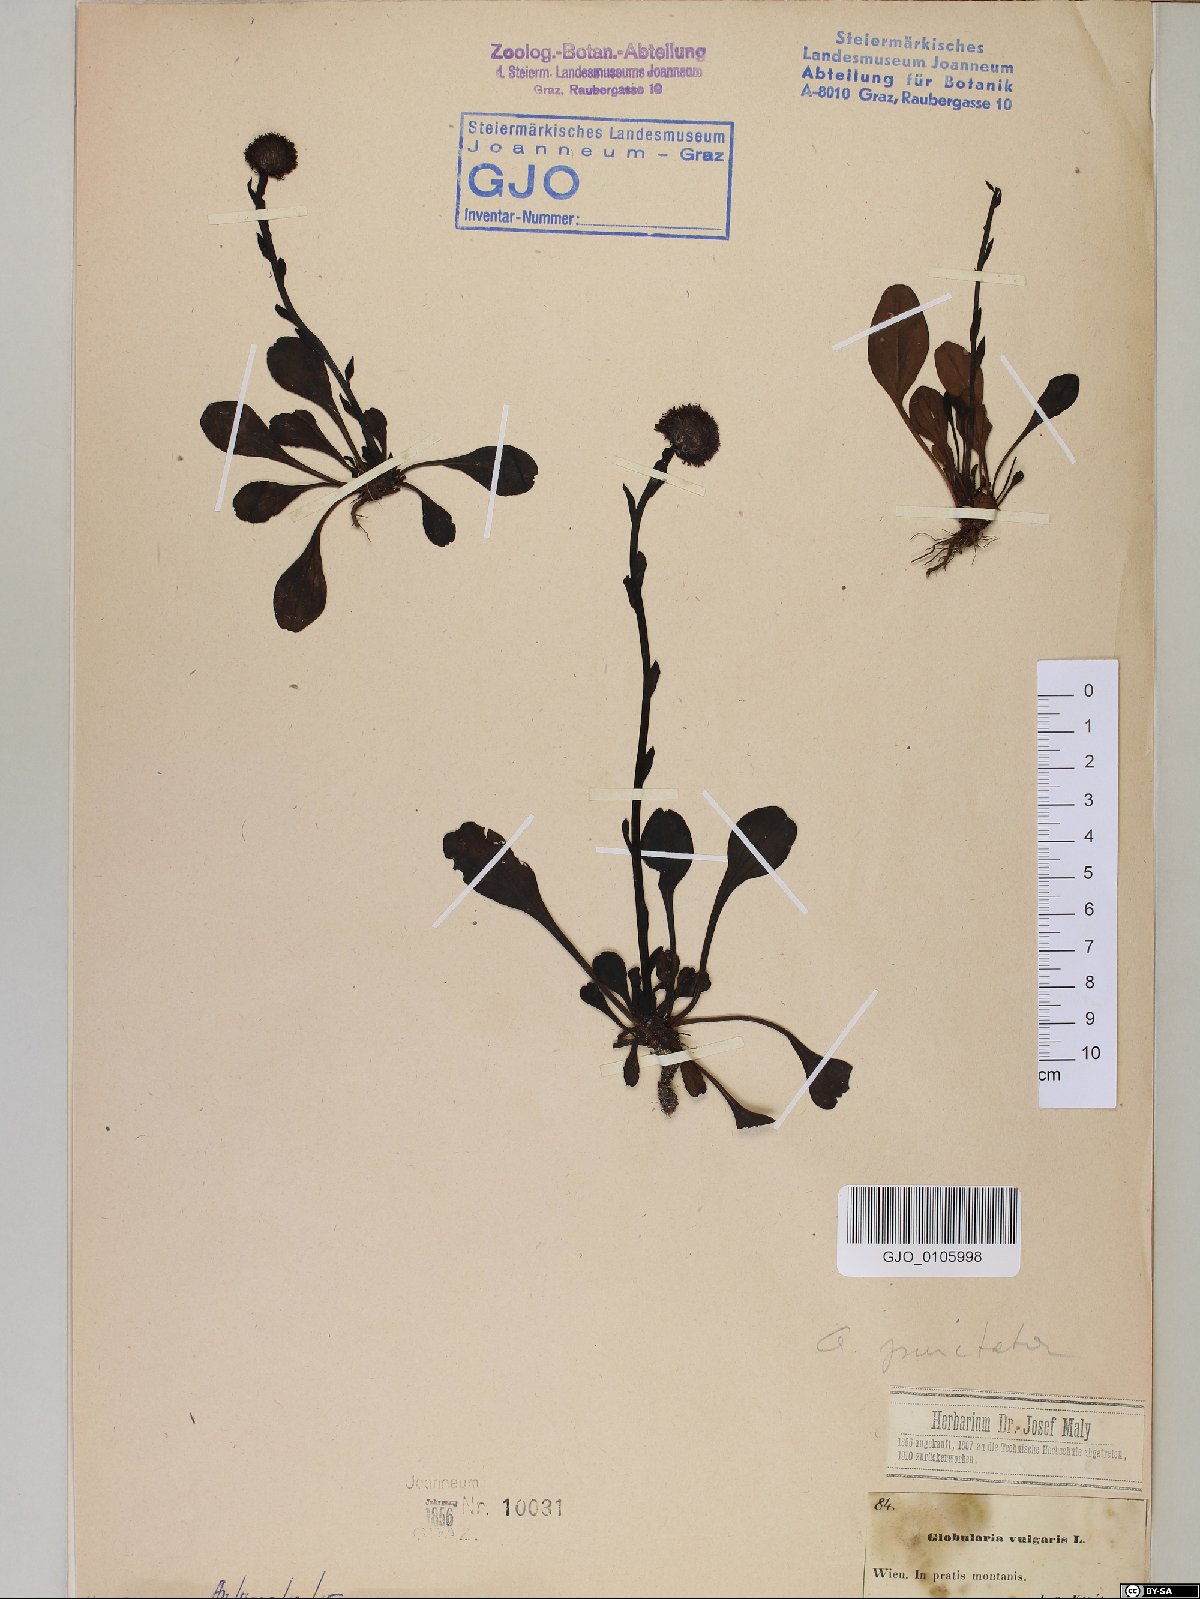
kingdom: Plantae
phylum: Tracheophyta
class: Magnoliopsida
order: Lamiales
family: Plantaginaceae
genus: Globularia
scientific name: Globularia bisnagarica
